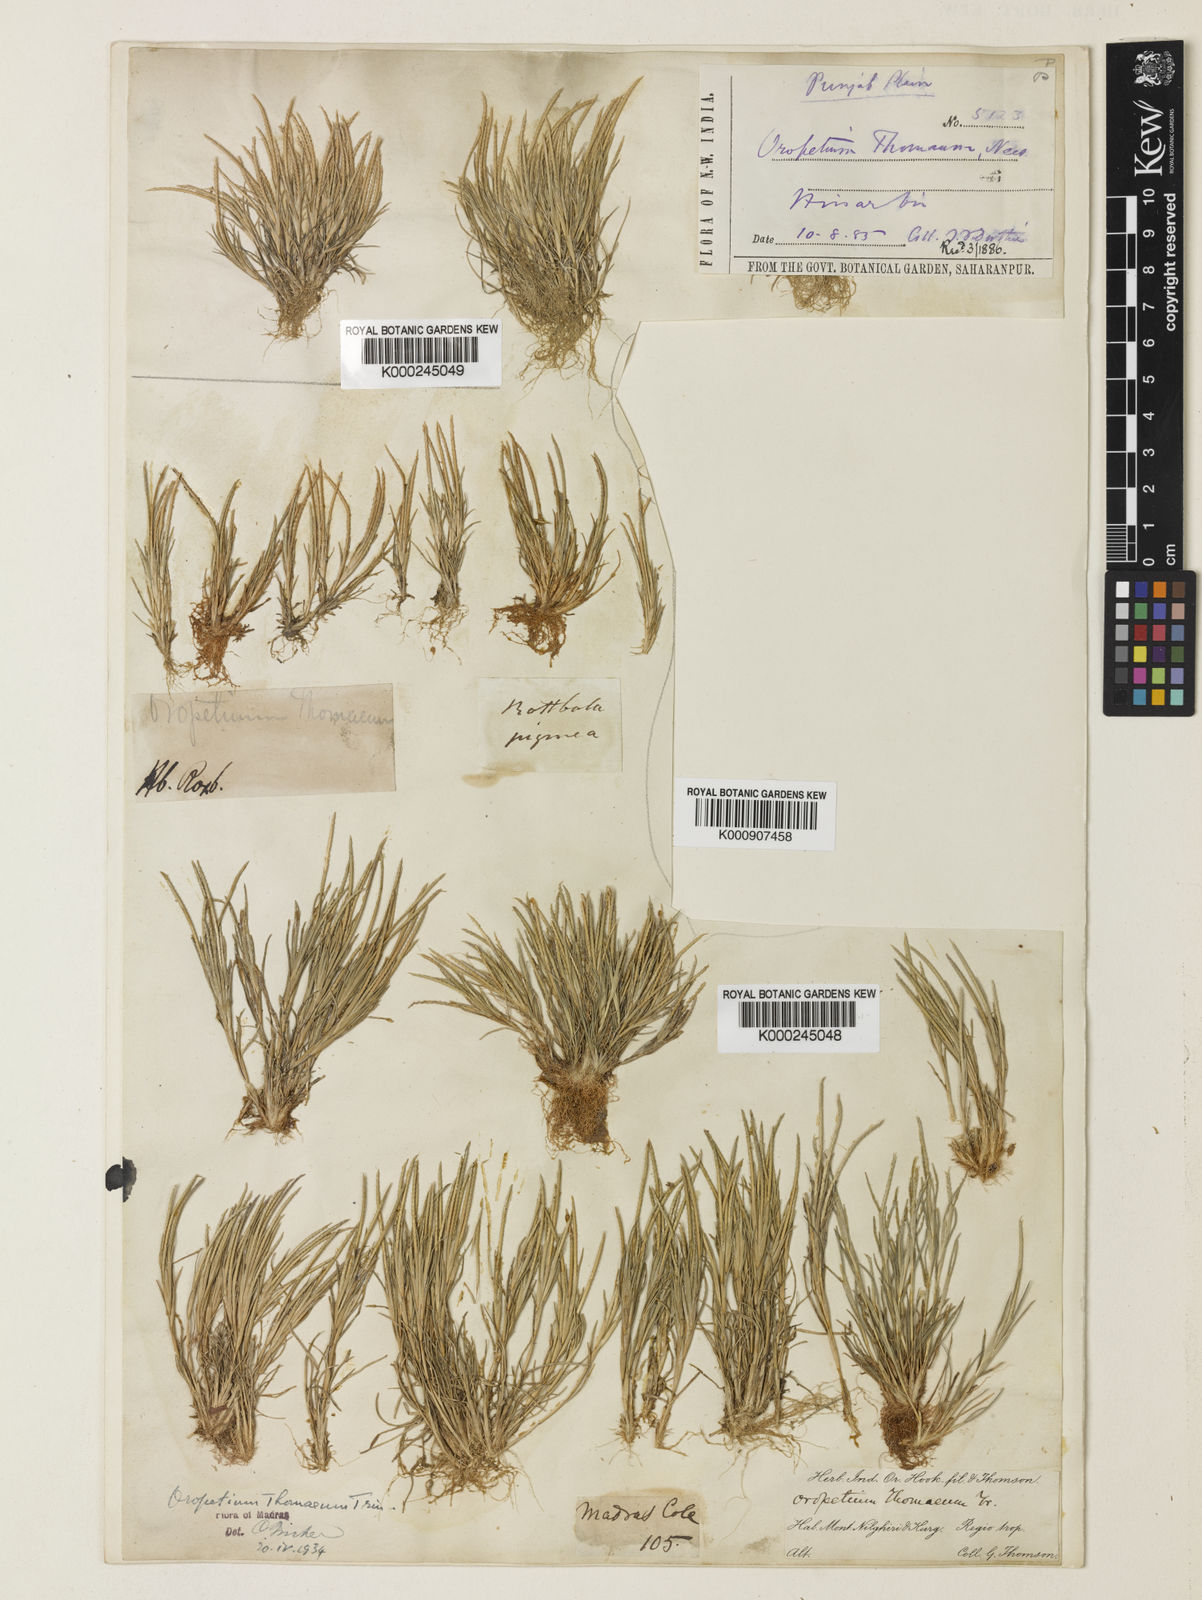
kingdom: Plantae
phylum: Tracheophyta
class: Liliopsida
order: Poales
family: Poaceae
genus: Oropetium
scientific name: Oropetium thomaeum
